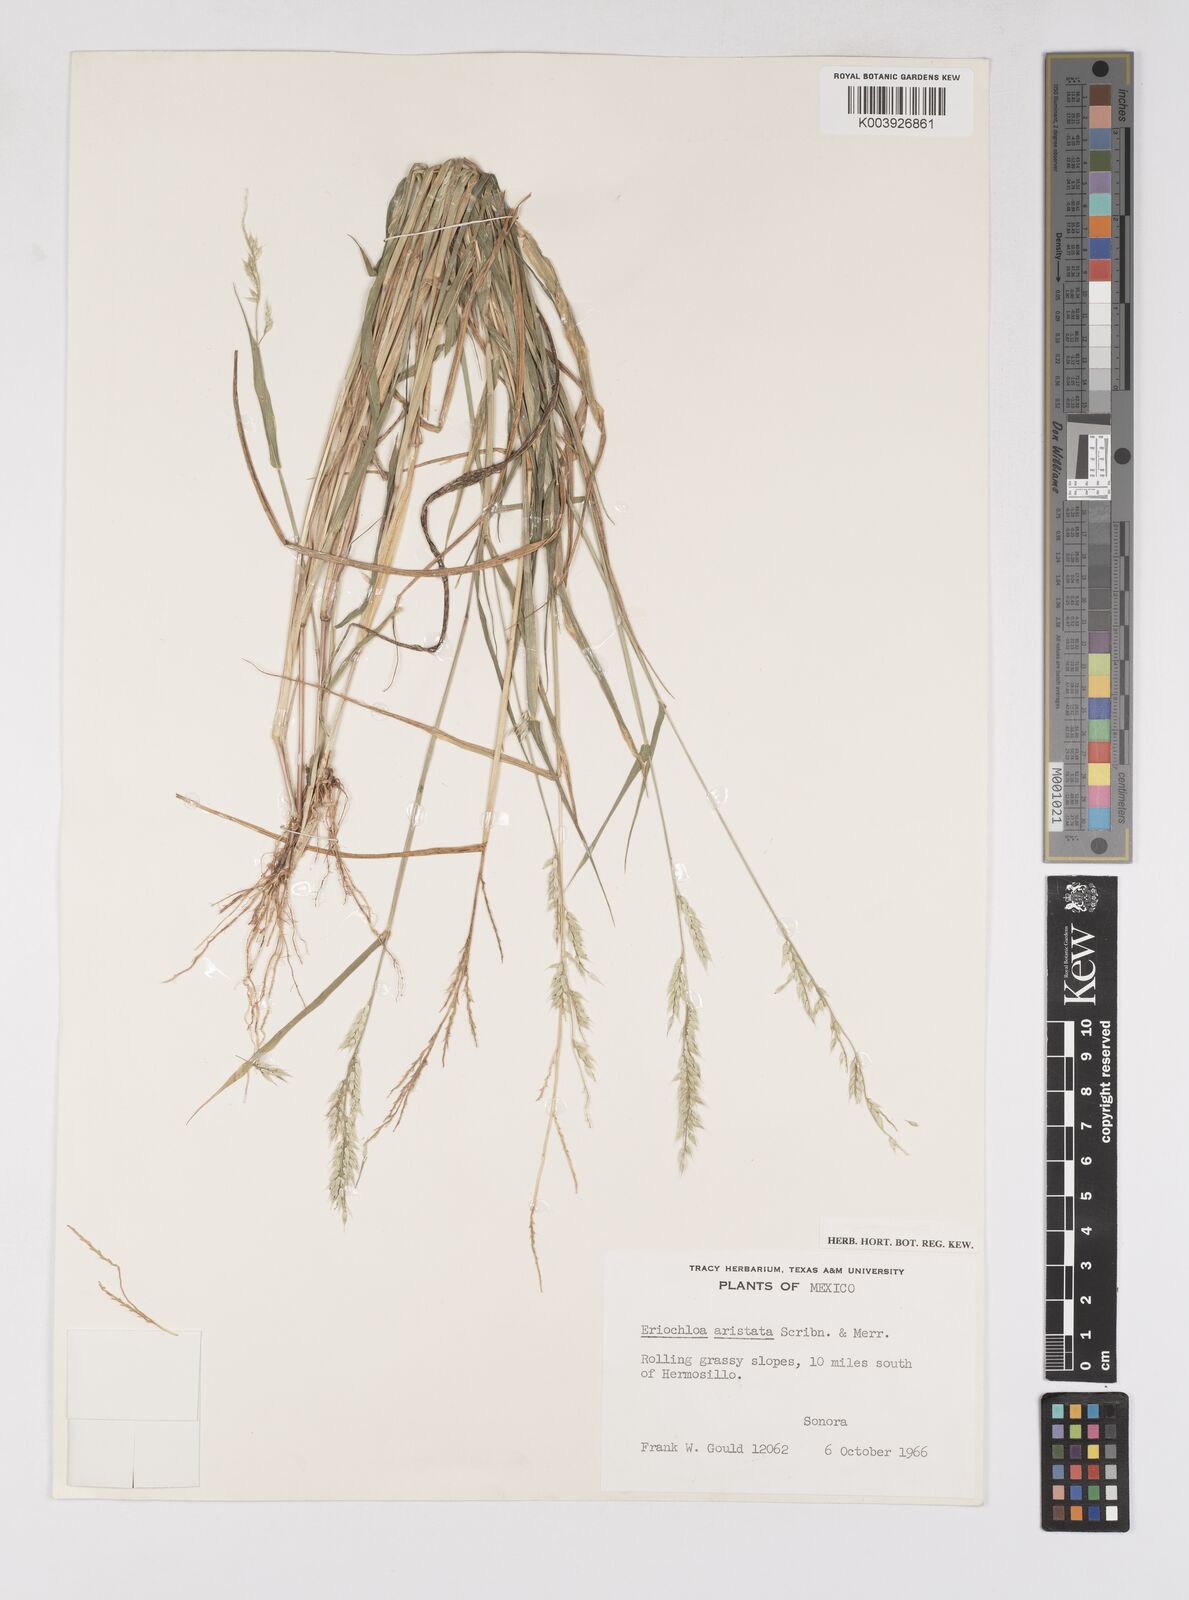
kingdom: Plantae
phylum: Tracheophyta
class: Liliopsida
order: Poales
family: Poaceae
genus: Eriochloa
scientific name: Eriochloa aristata
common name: Bearded cup grass
